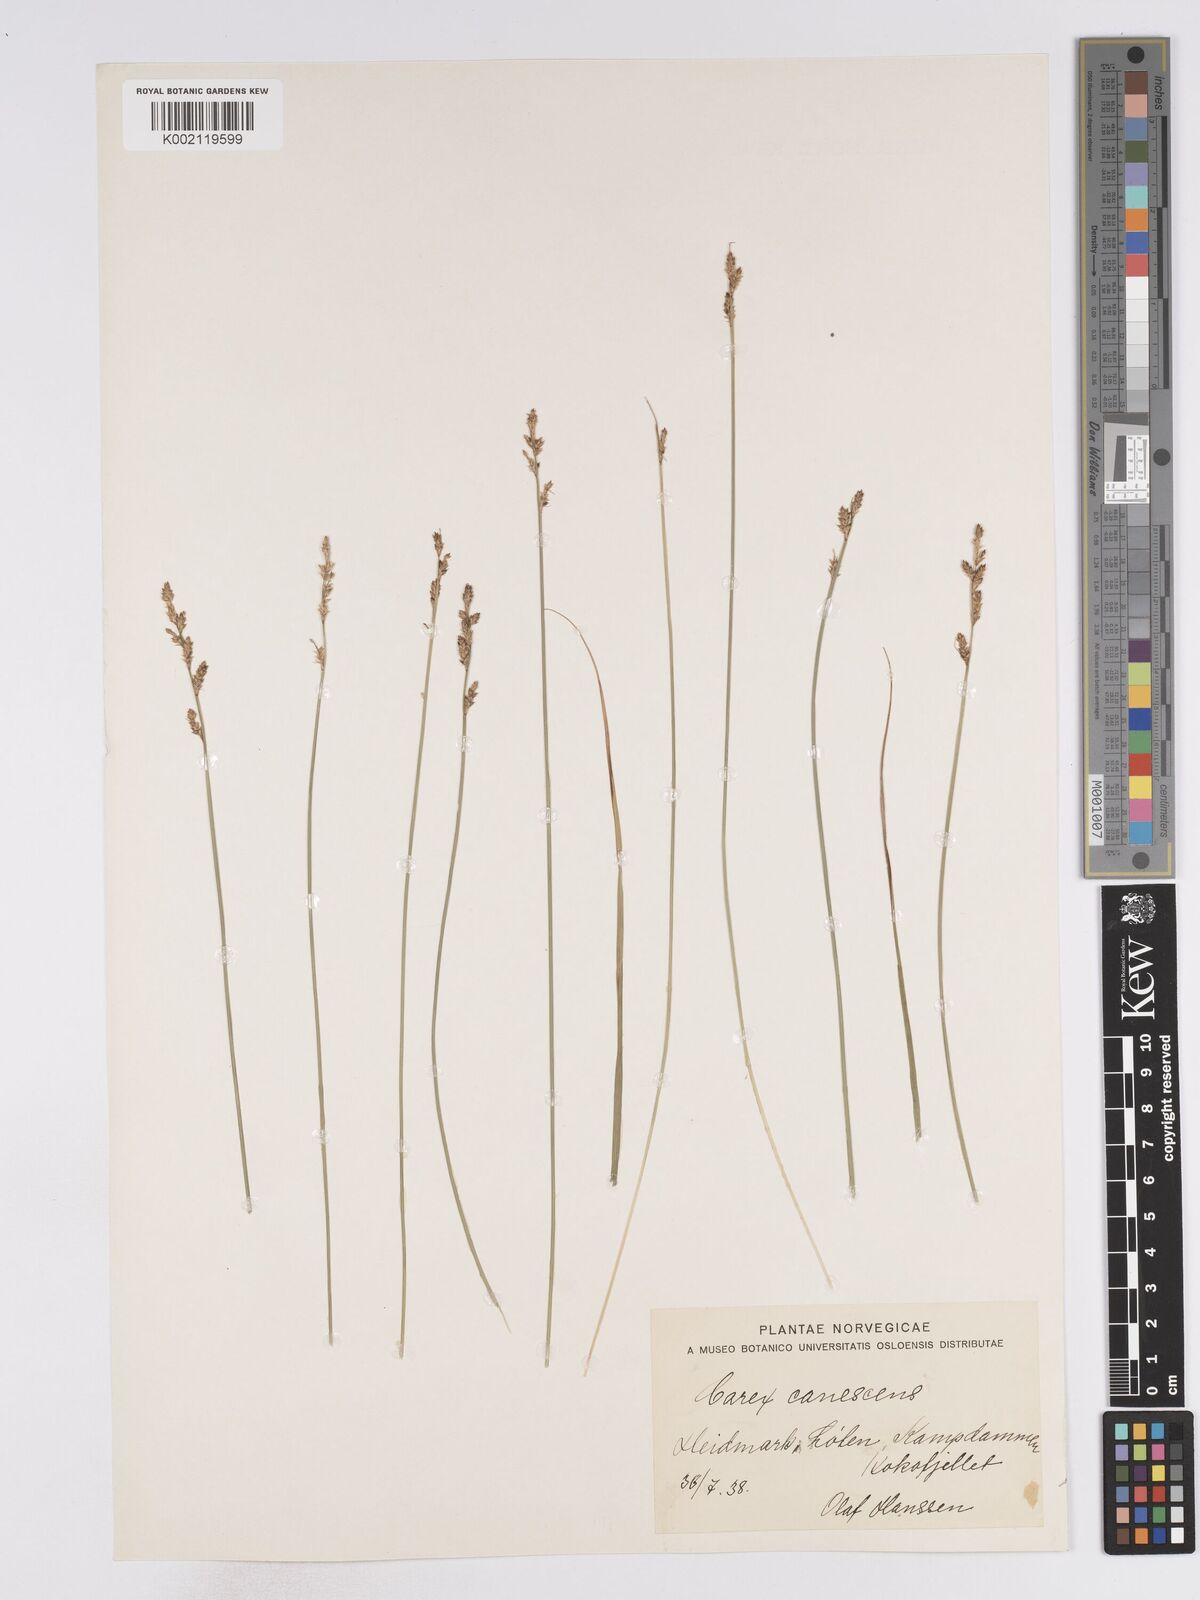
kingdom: Plantae
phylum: Tracheophyta
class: Liliopsida
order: Poales
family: Cyperaceae
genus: Carex
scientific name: Carex curta
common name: White sedge
